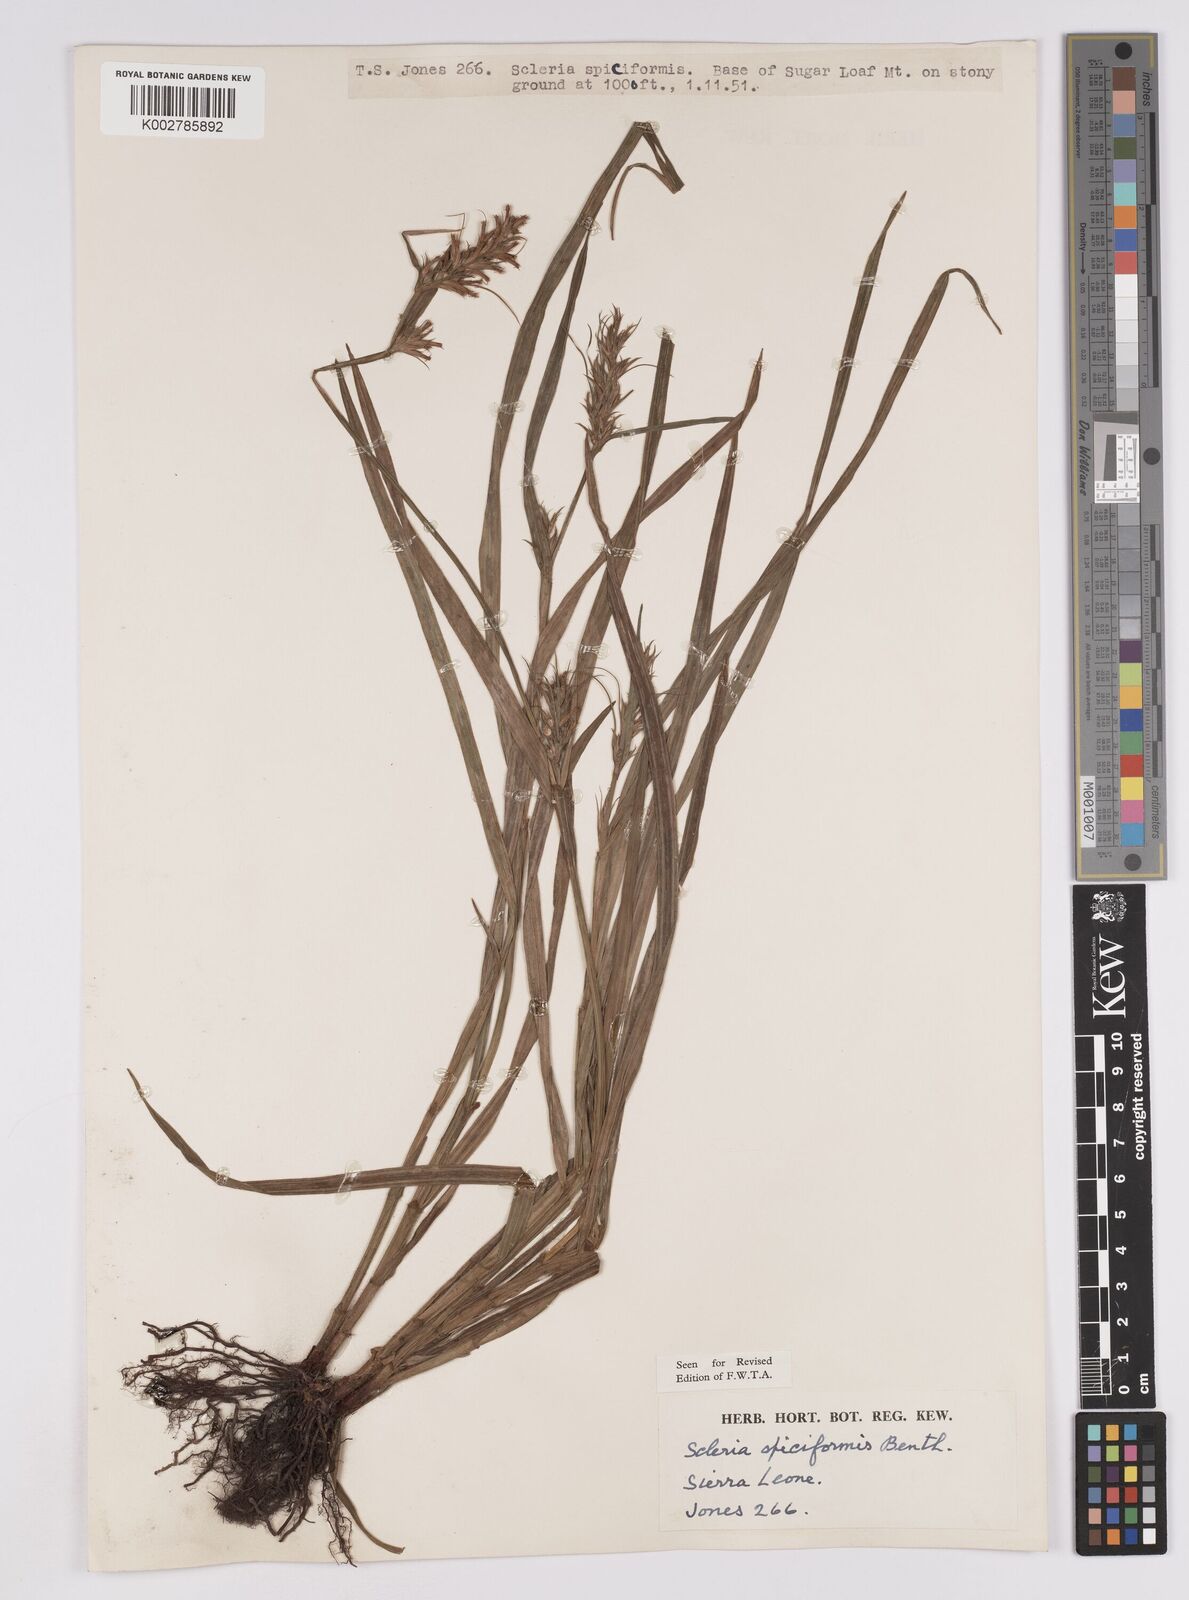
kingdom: Plantae
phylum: Tracheophyta
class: Liliopsida
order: Poales
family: Cyperaceae
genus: Scleria
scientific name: Scleria spiciformis
